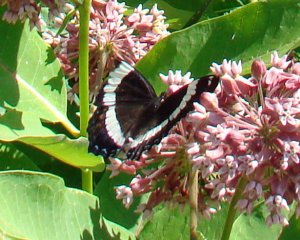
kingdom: Animalia
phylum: Arthropoda
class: Insecta
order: Lepidoptera
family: Nymphalidae
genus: Limenitis
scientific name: Limenitis arthemis
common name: Red-spotted Admiral
